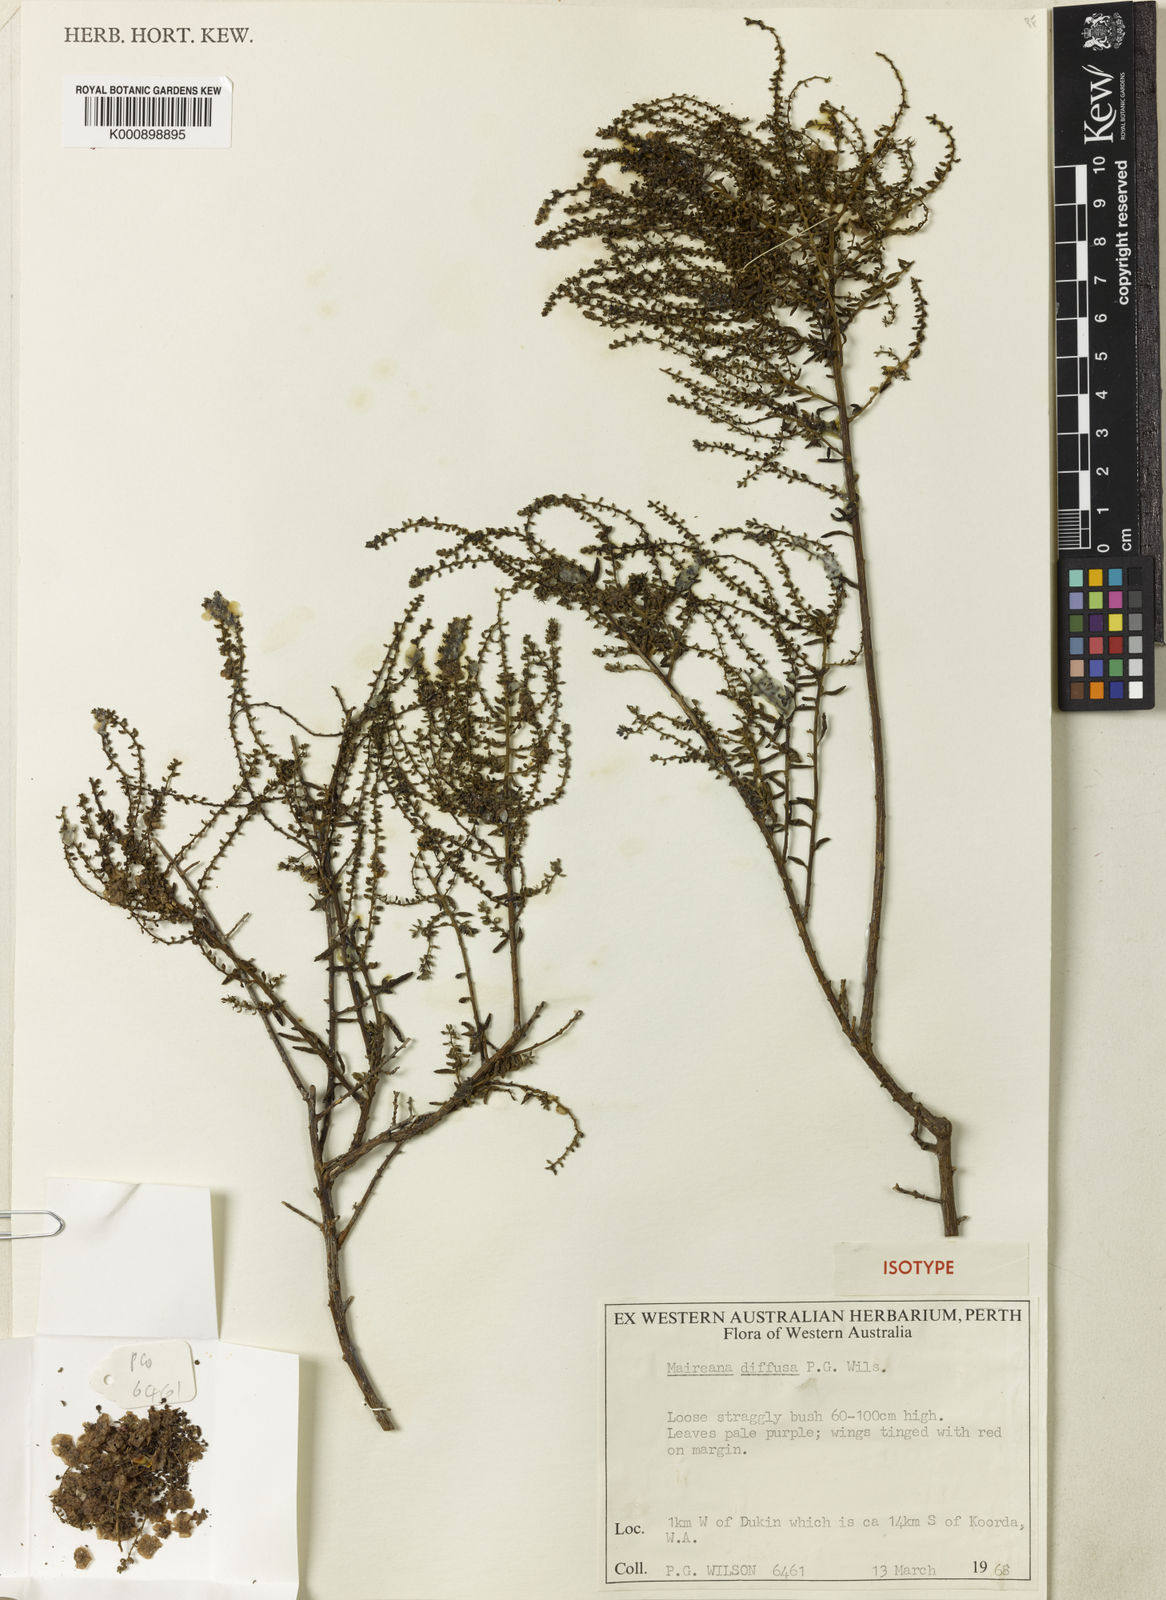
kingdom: Plantae
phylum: Tracheophyta
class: Magnoliopsida
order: Caryophyllales
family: Amaranthaceae
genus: Maireana
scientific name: Maireana diffusa
